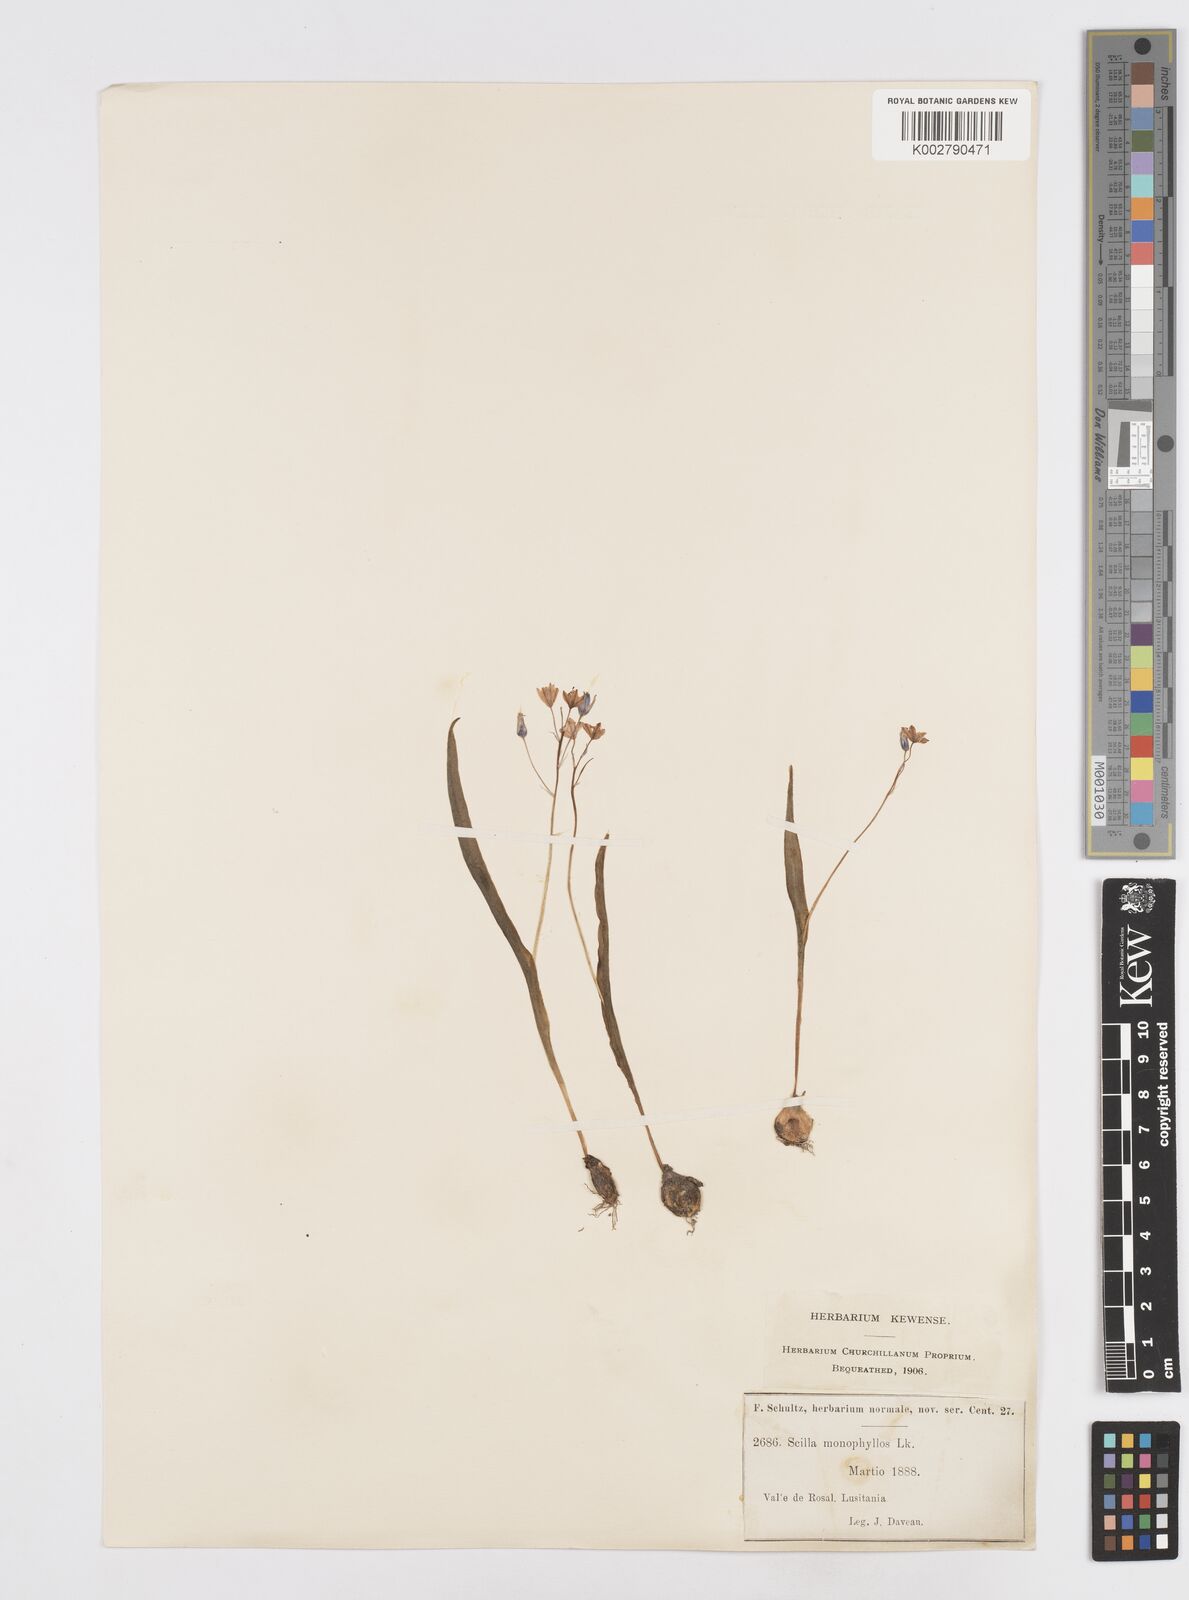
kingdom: Plantae
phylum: Tracheophyta
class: Liliopsida
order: Asparagales
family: Asparagaceae
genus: Scilla
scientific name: Scilla monophyllos
